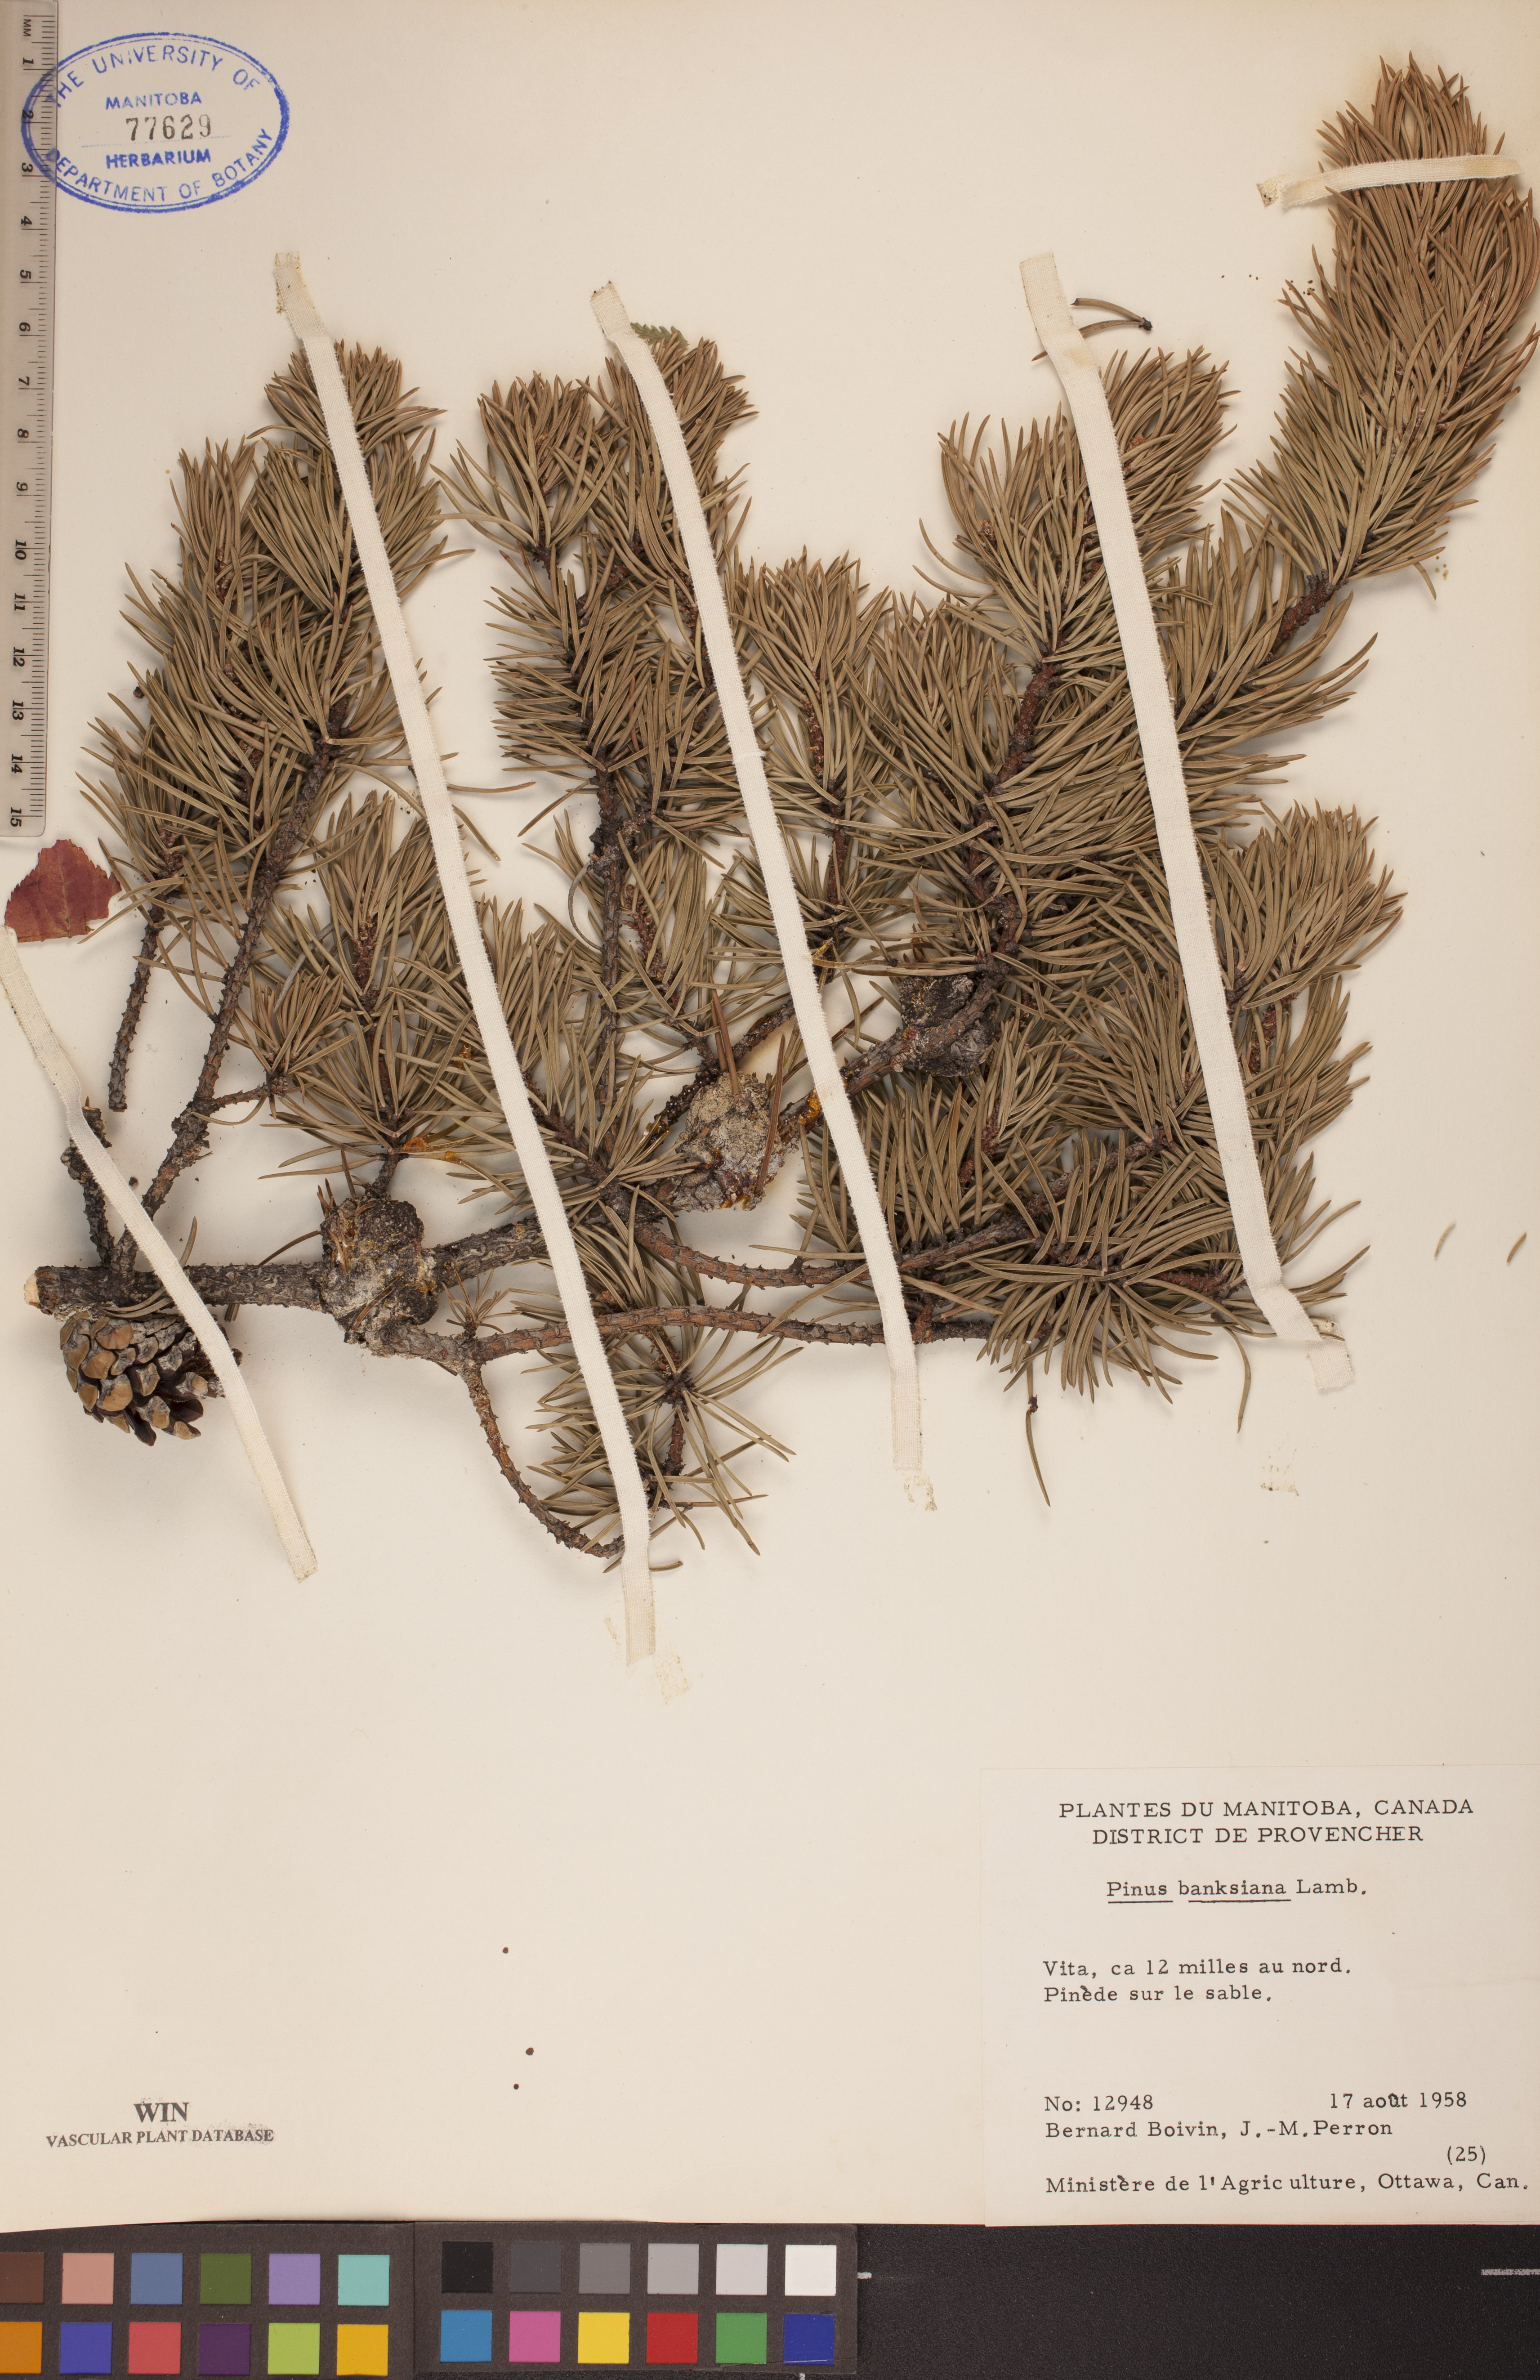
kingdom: Plantae
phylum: Tracheophyta
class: Pinopsida
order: Pinales
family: Pinaceae
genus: Pinus
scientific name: Pinus banksiana
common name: Jack pine
